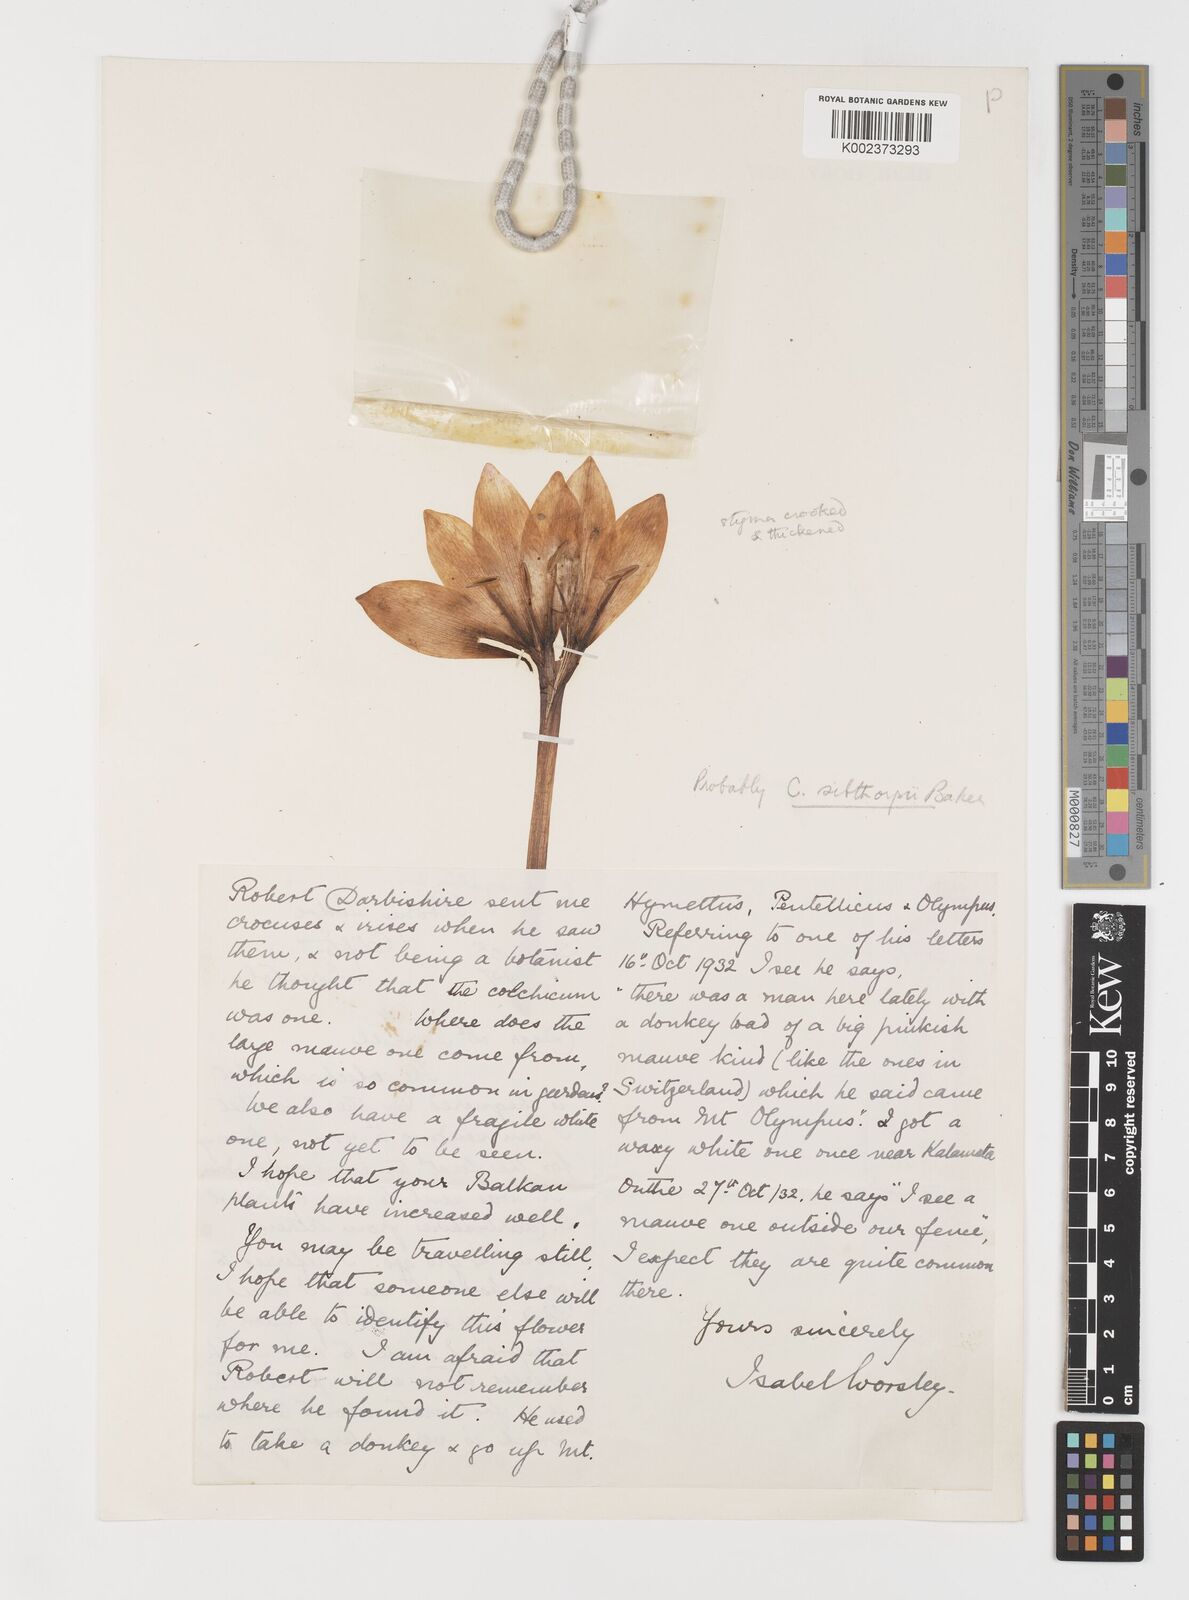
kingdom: Plantae
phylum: Tracheophyta
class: Liliopsida
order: Liliales
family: Colchicaceae
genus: Colchicum
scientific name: Colchicum bivonae
